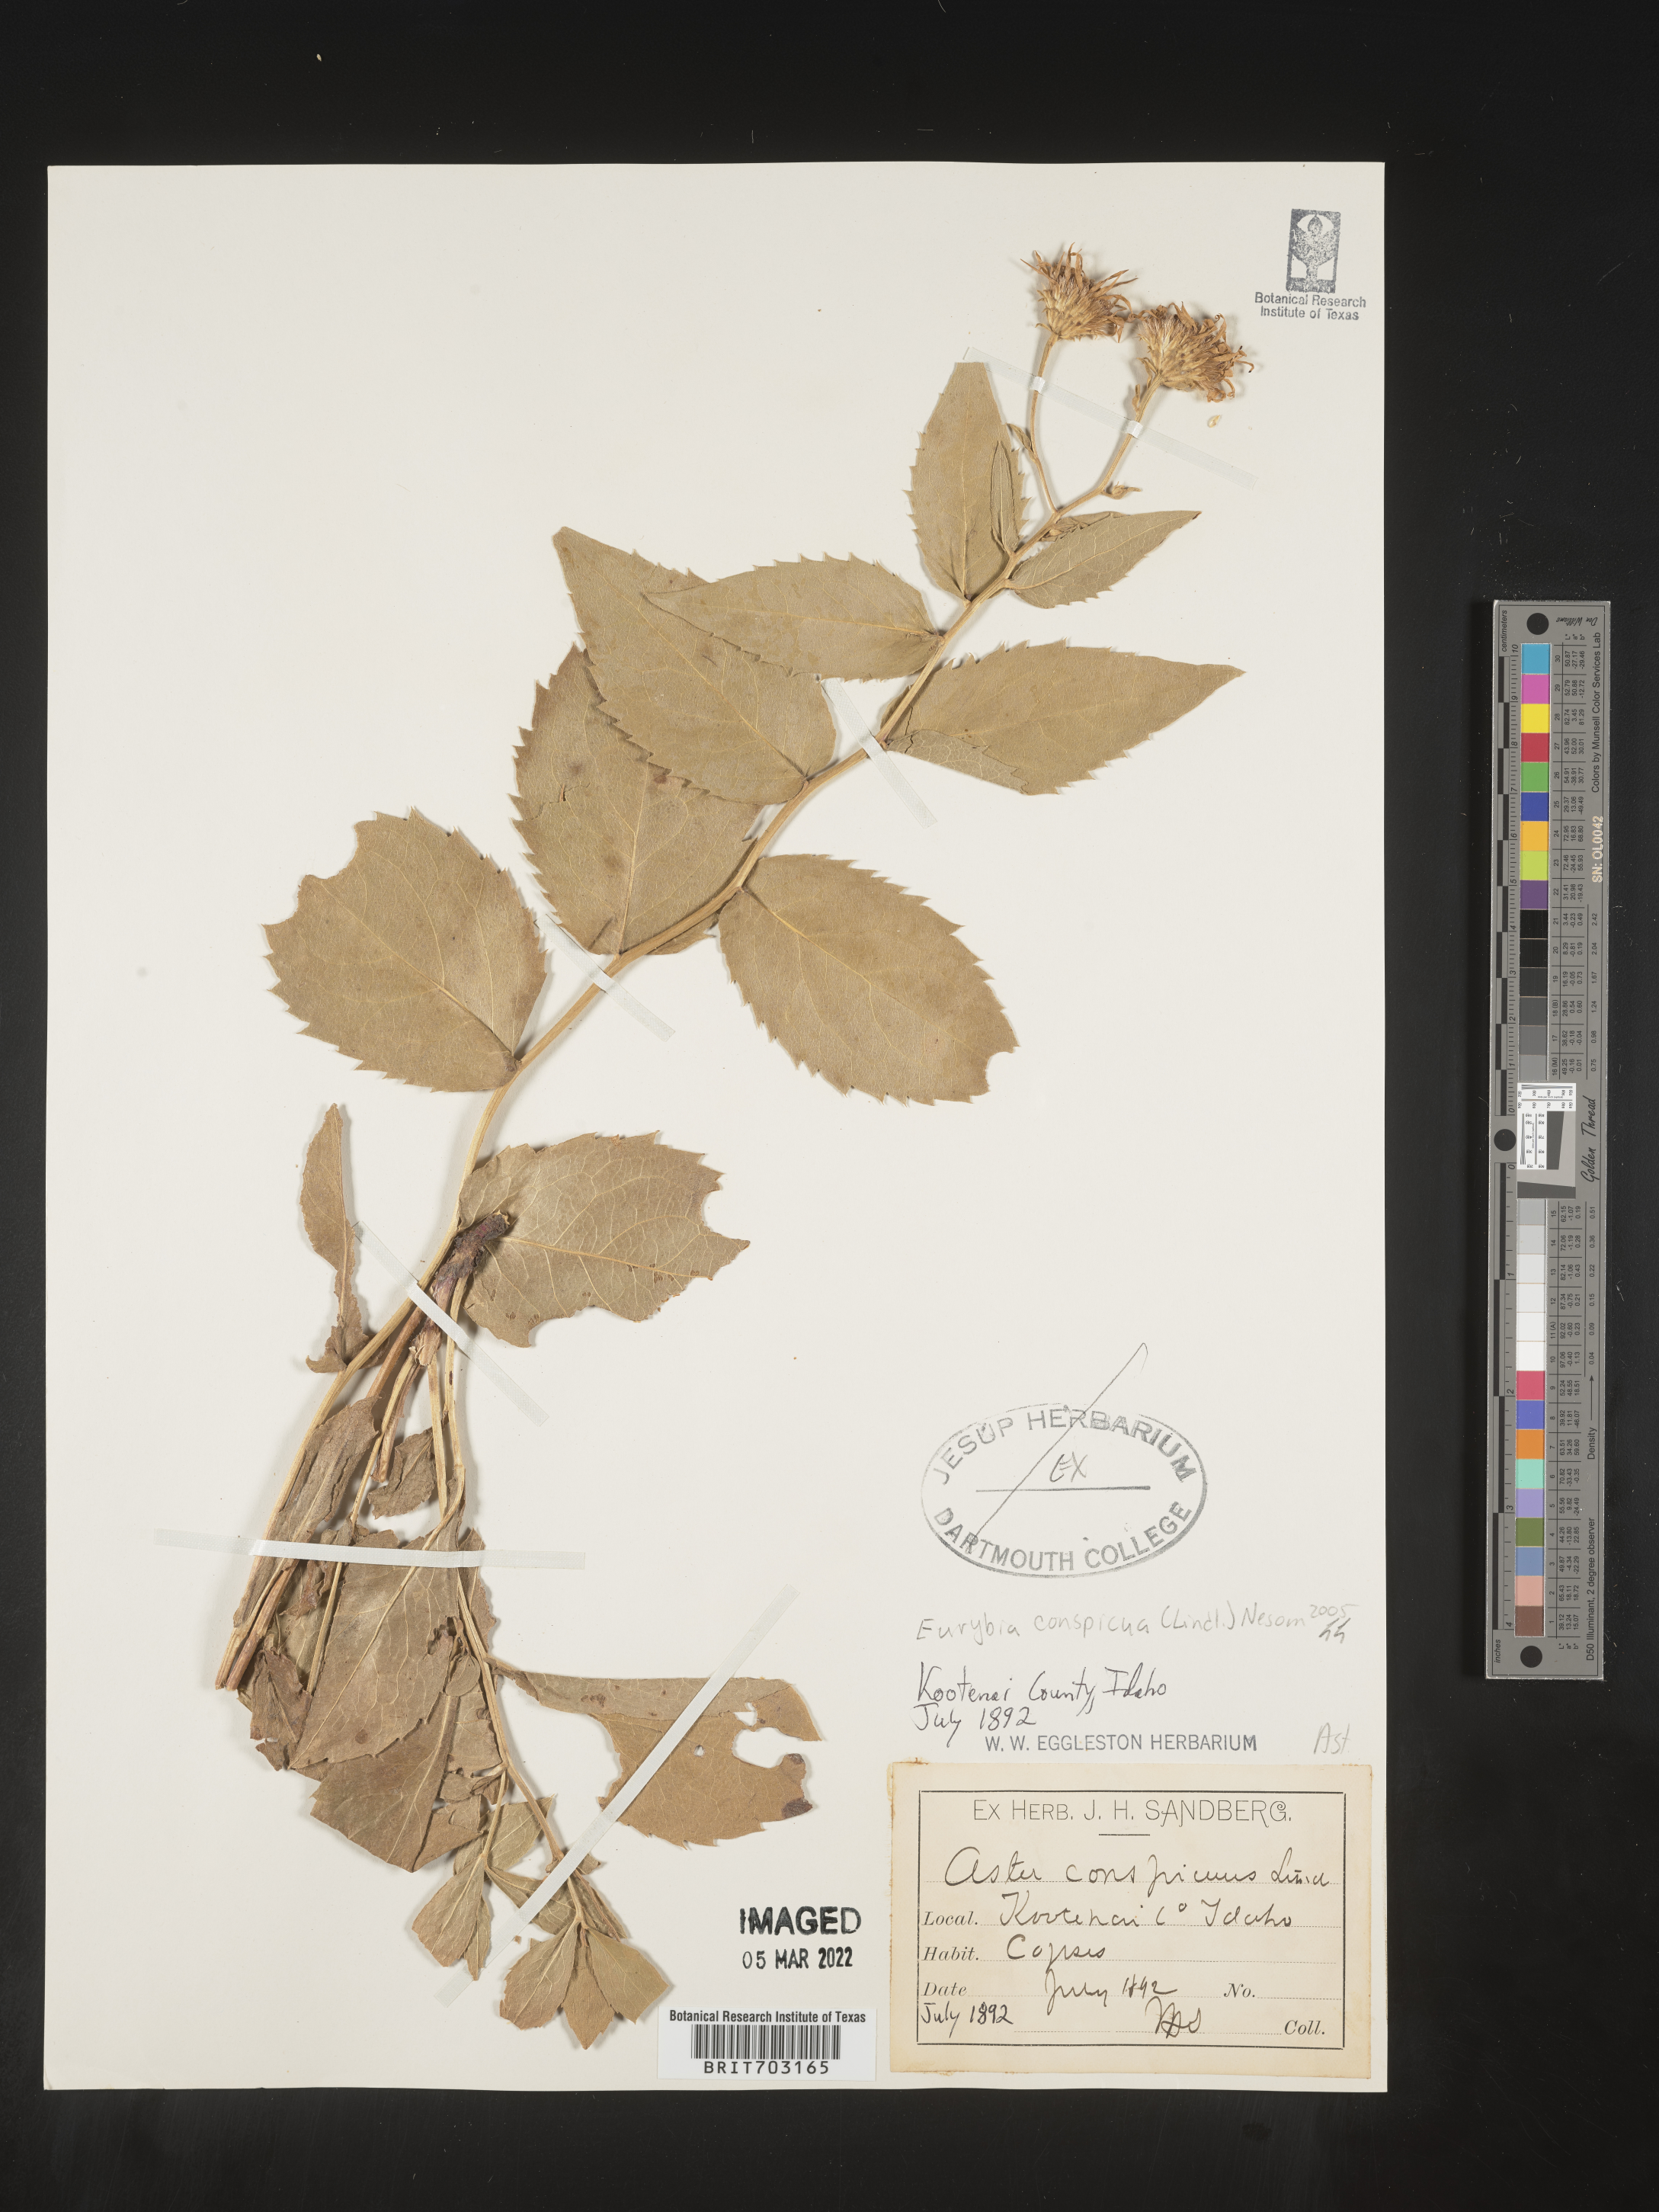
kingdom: Plantae
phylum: Tracheophyta
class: Magnoliopsida
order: Asterales
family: Asteraceae
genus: Eurybia
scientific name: Eurybia conspicua
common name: Showy aster
